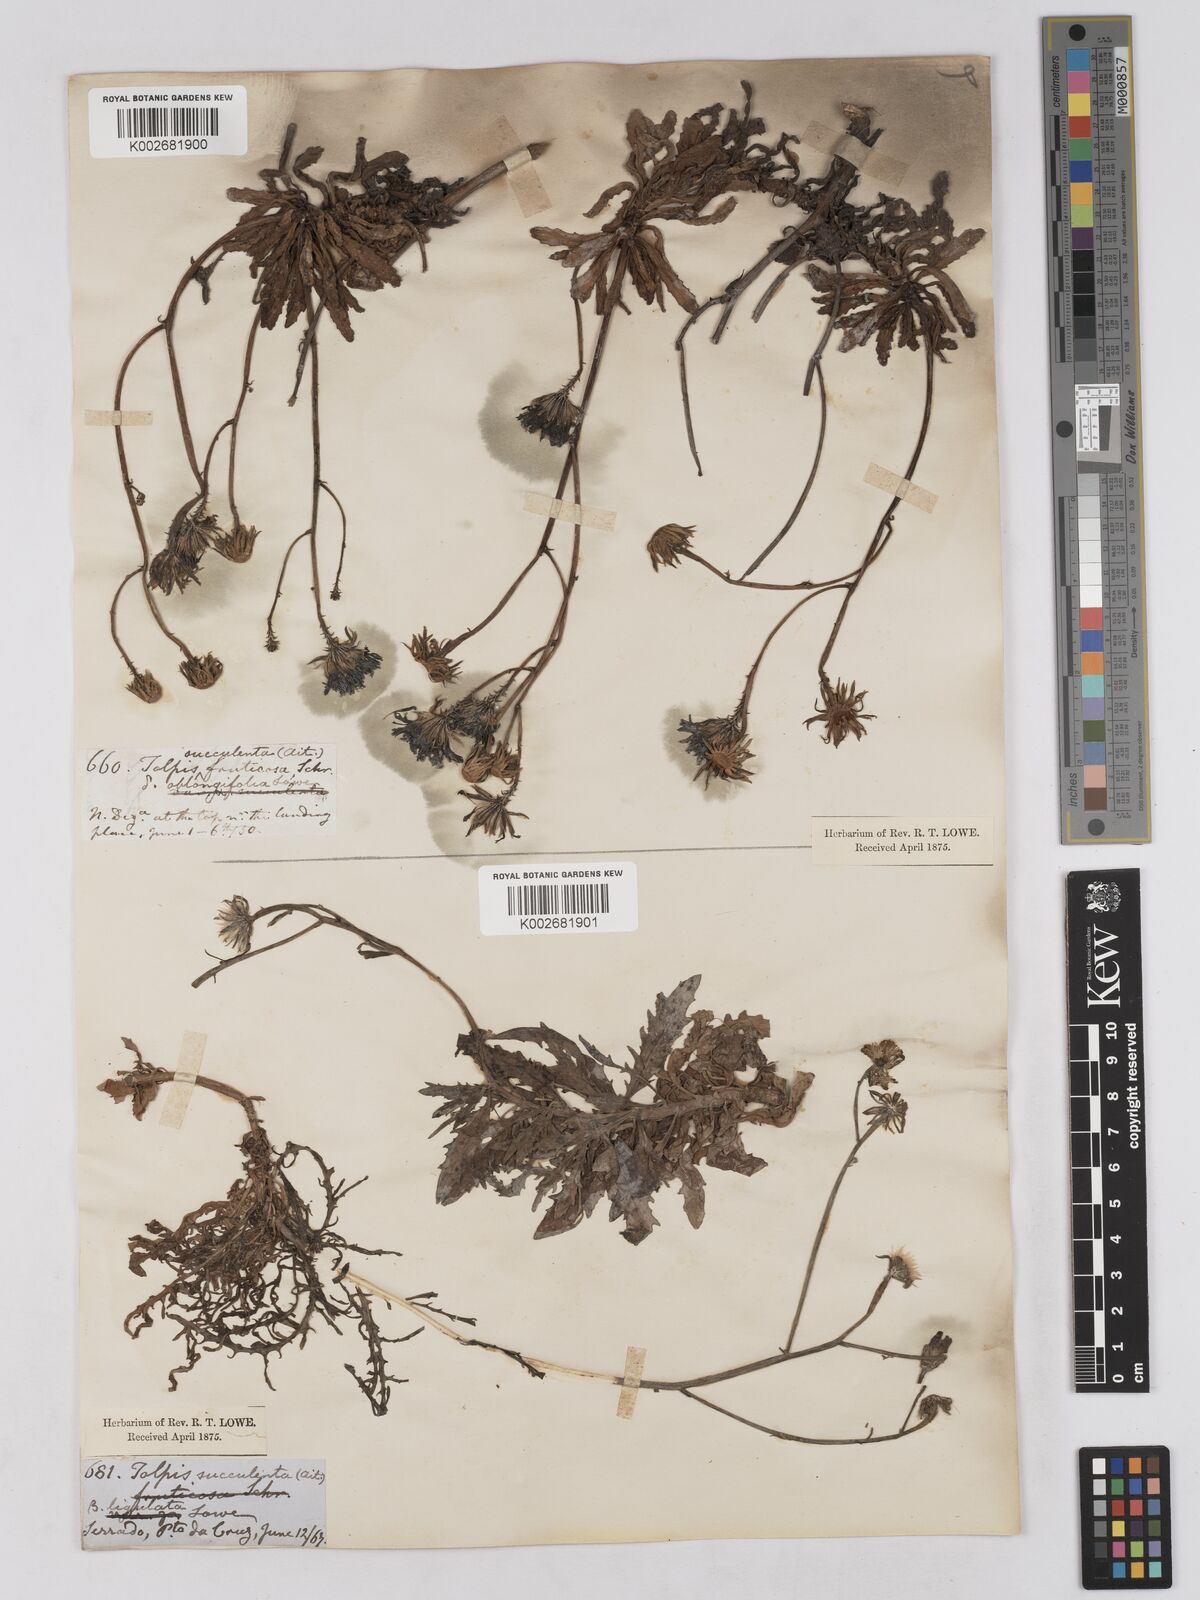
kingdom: Plantae
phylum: Tracheophyta
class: Magnoliopsida
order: Asterales
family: Asteraceae
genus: Tolpis
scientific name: Tolpis succulenta
